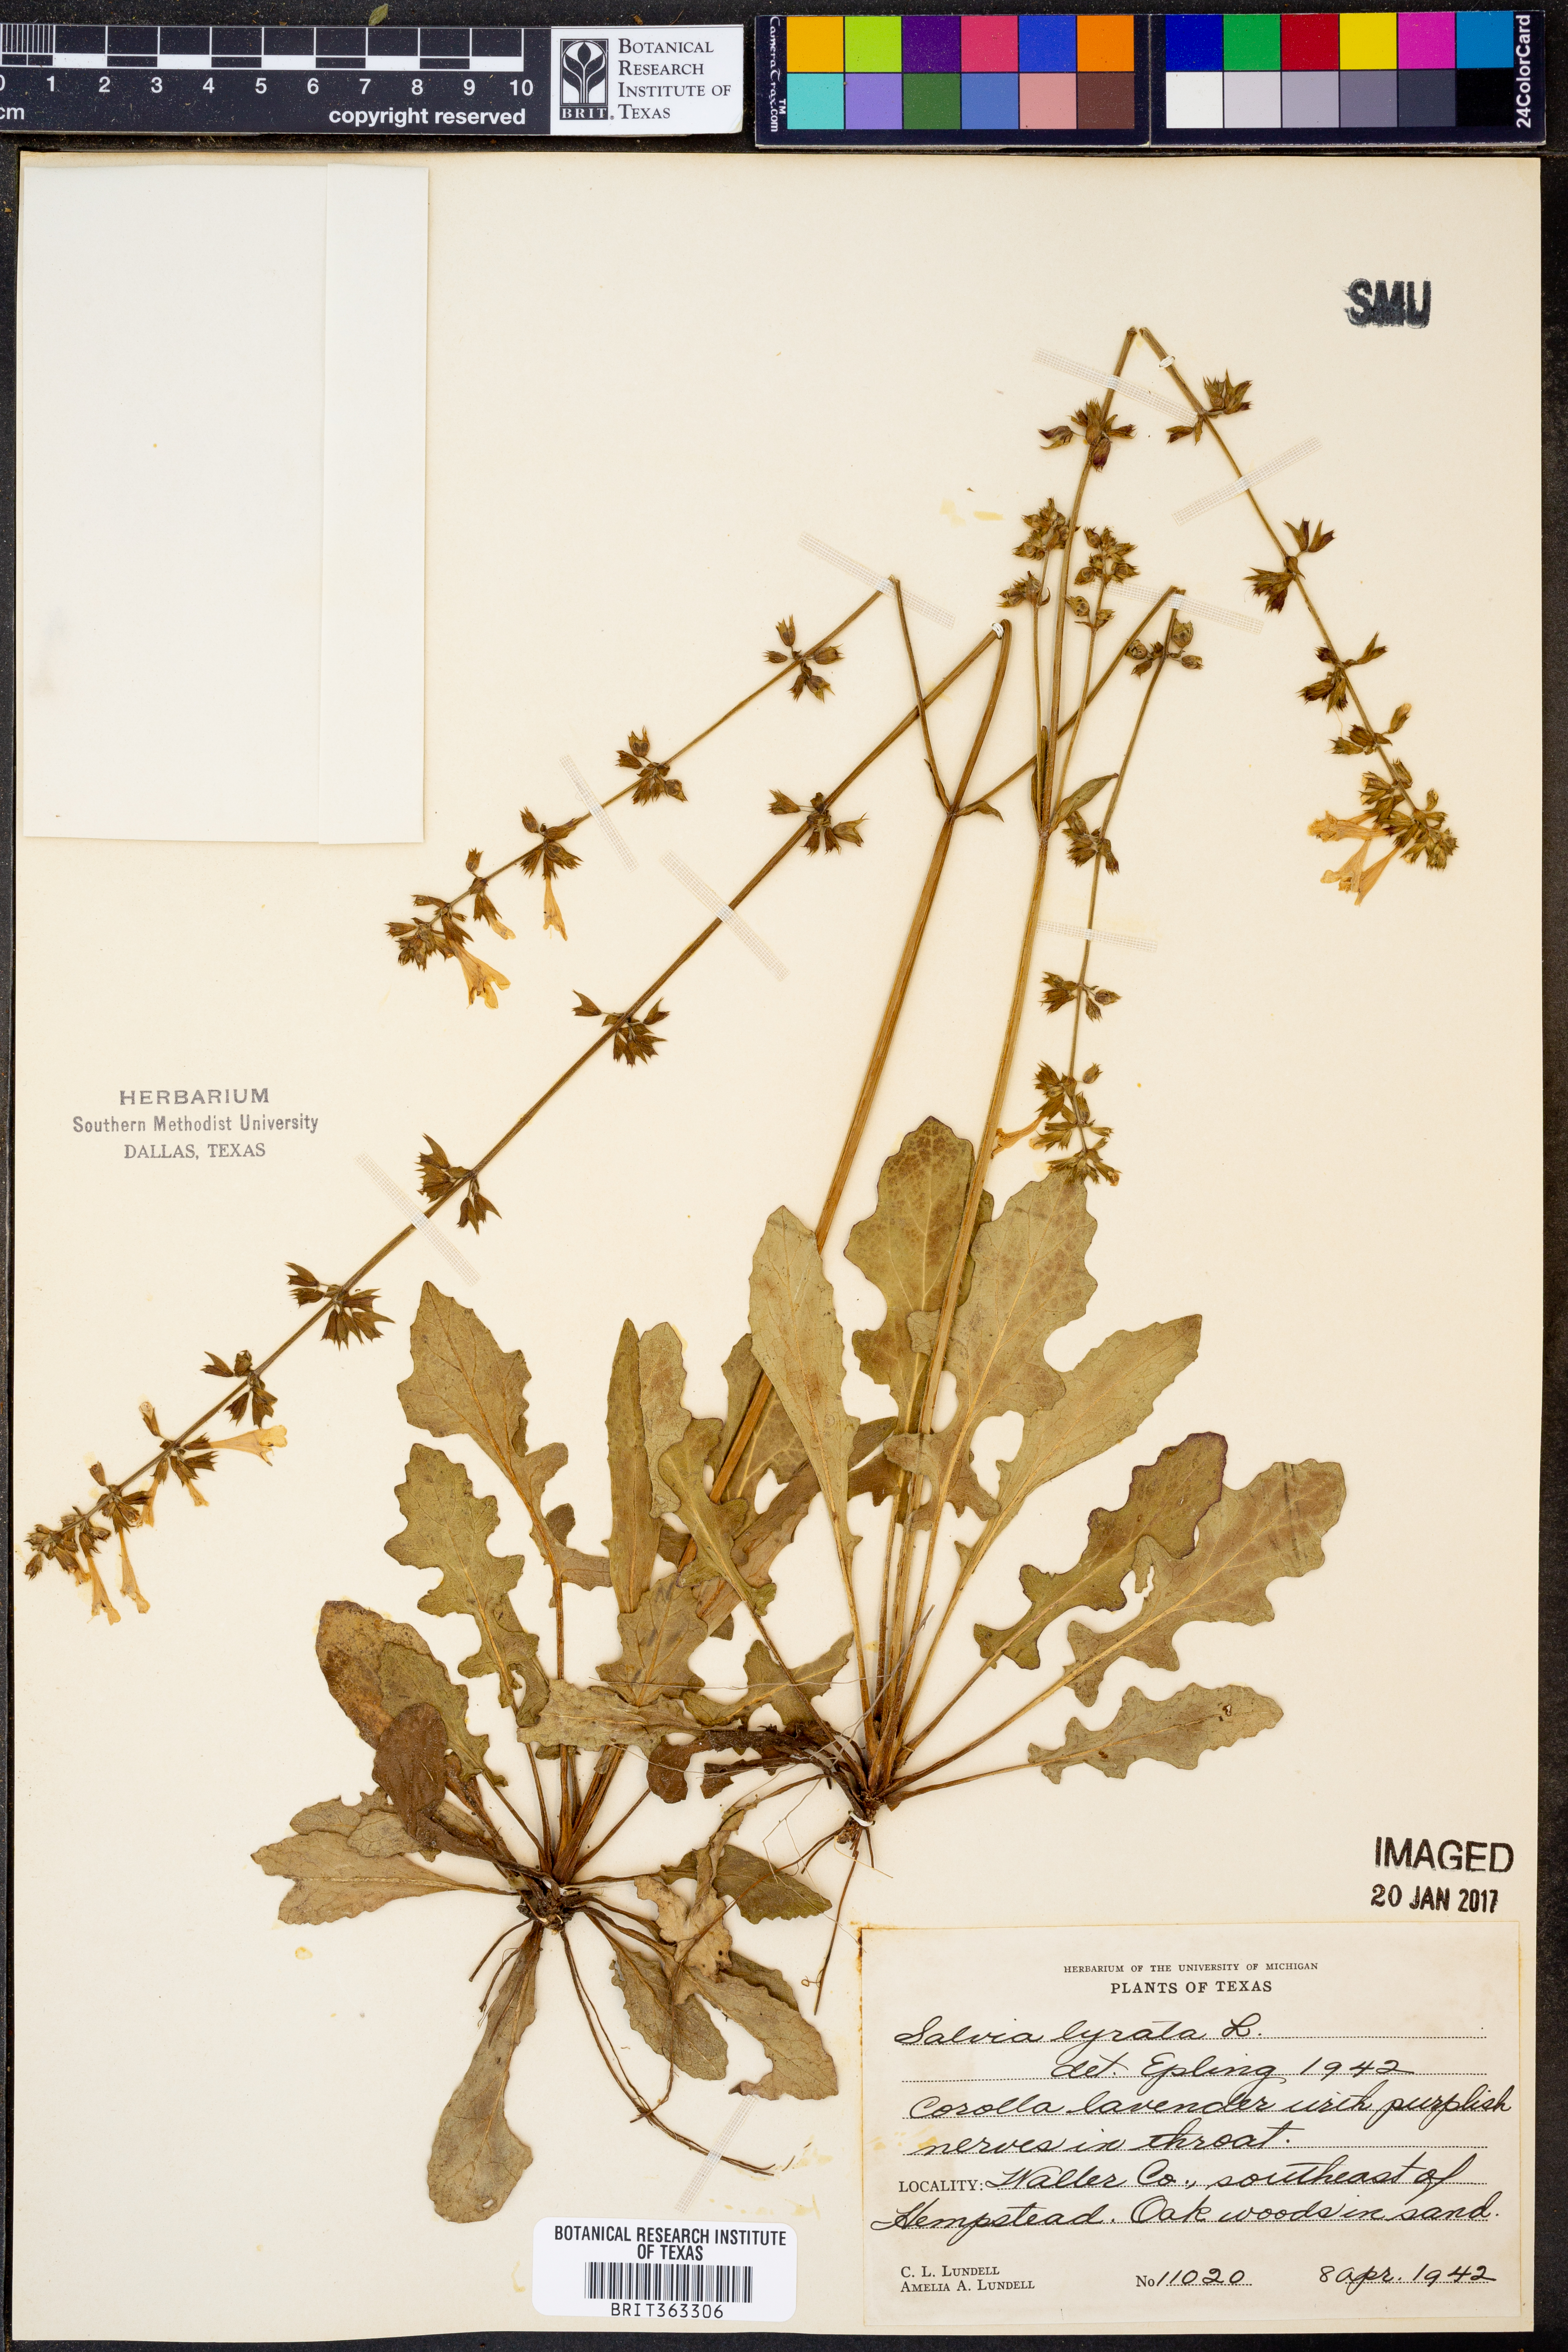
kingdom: Plantae
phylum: Tracheophyta
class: Magnoliopsida
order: Lamiales
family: Lamiaceae
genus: Salvia
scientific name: Salvia lyrata
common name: Cancerweed
